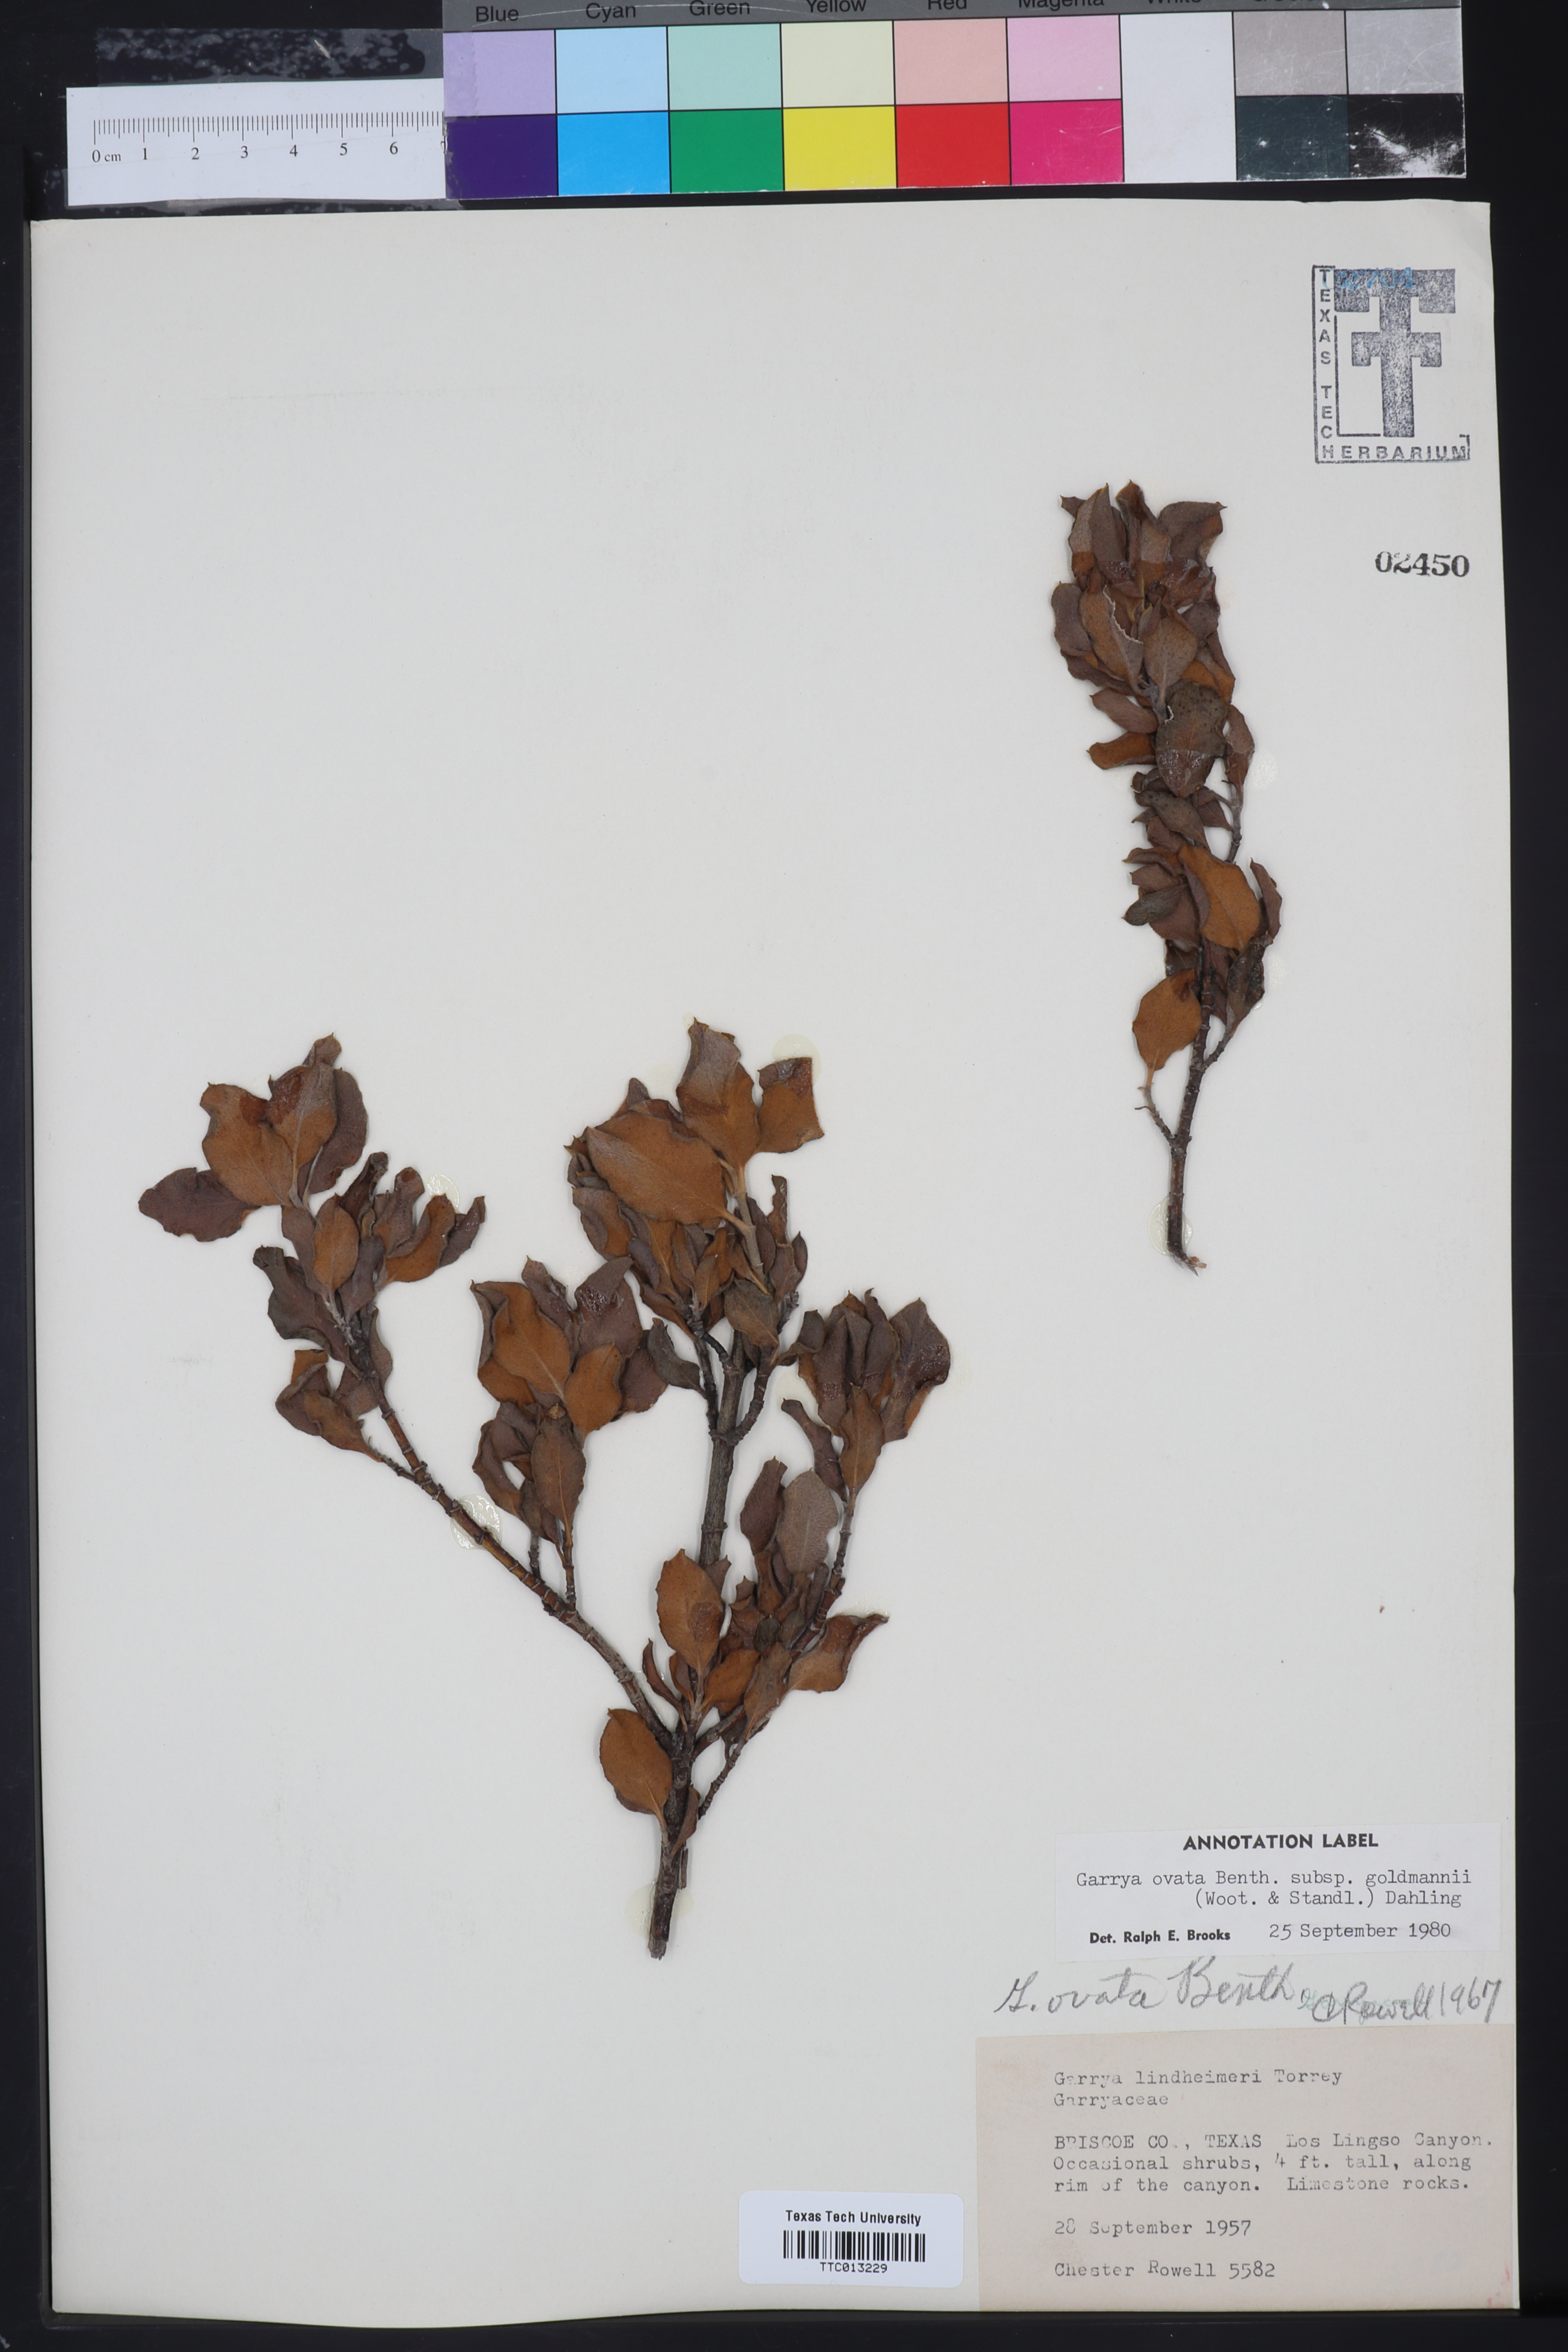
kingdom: Plantae
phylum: Tracheophyta
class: Magnoliopsida
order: Garryales
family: Garryaceae
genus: Garrya
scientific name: Garrya ovata
